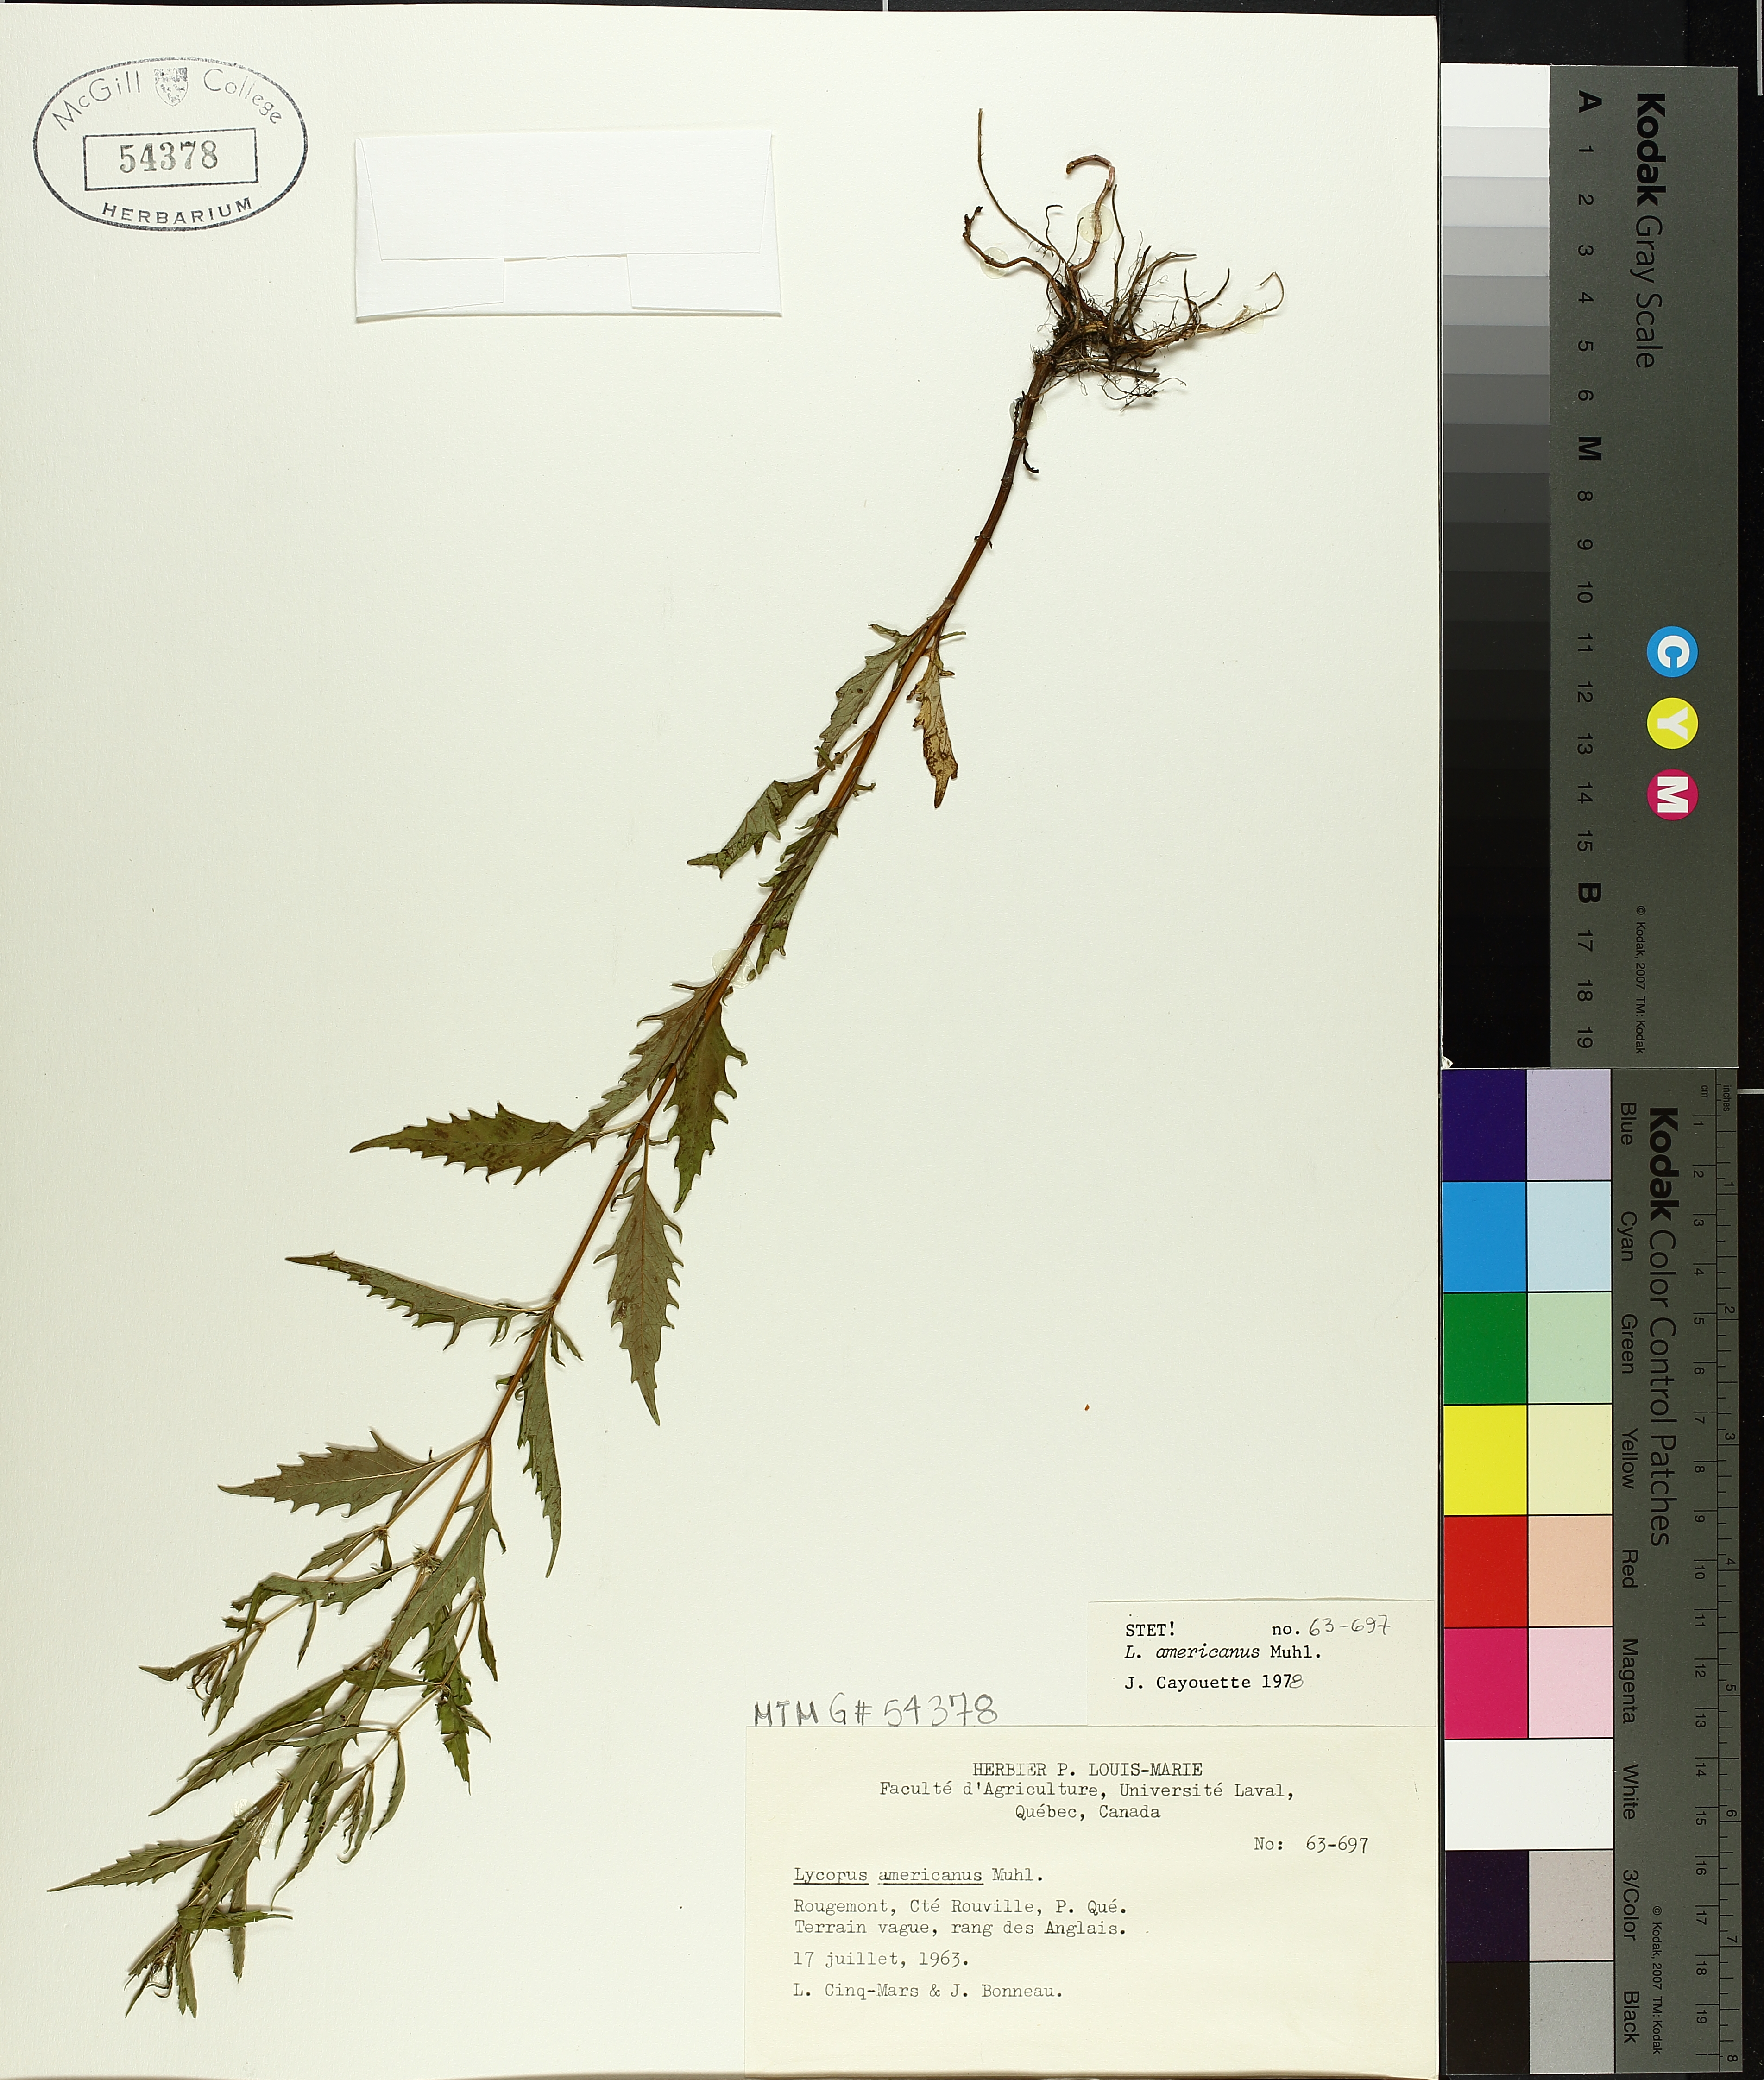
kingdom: Plantae
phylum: Tracheophyta
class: Magnoliopsida
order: Lamiales
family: Lamiaceae
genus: Lycopus
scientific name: Lycopus americanus
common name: American bugleweed
